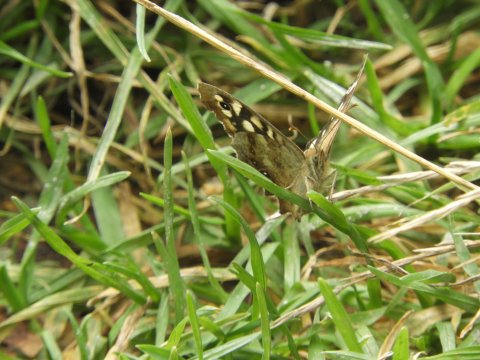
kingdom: Animalia
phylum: Arthropoda
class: Insecta
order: Lepidoptera
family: Nymphalidae
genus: Pararge
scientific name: Pararge aegeria
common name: Speckled Wood Butterfly
